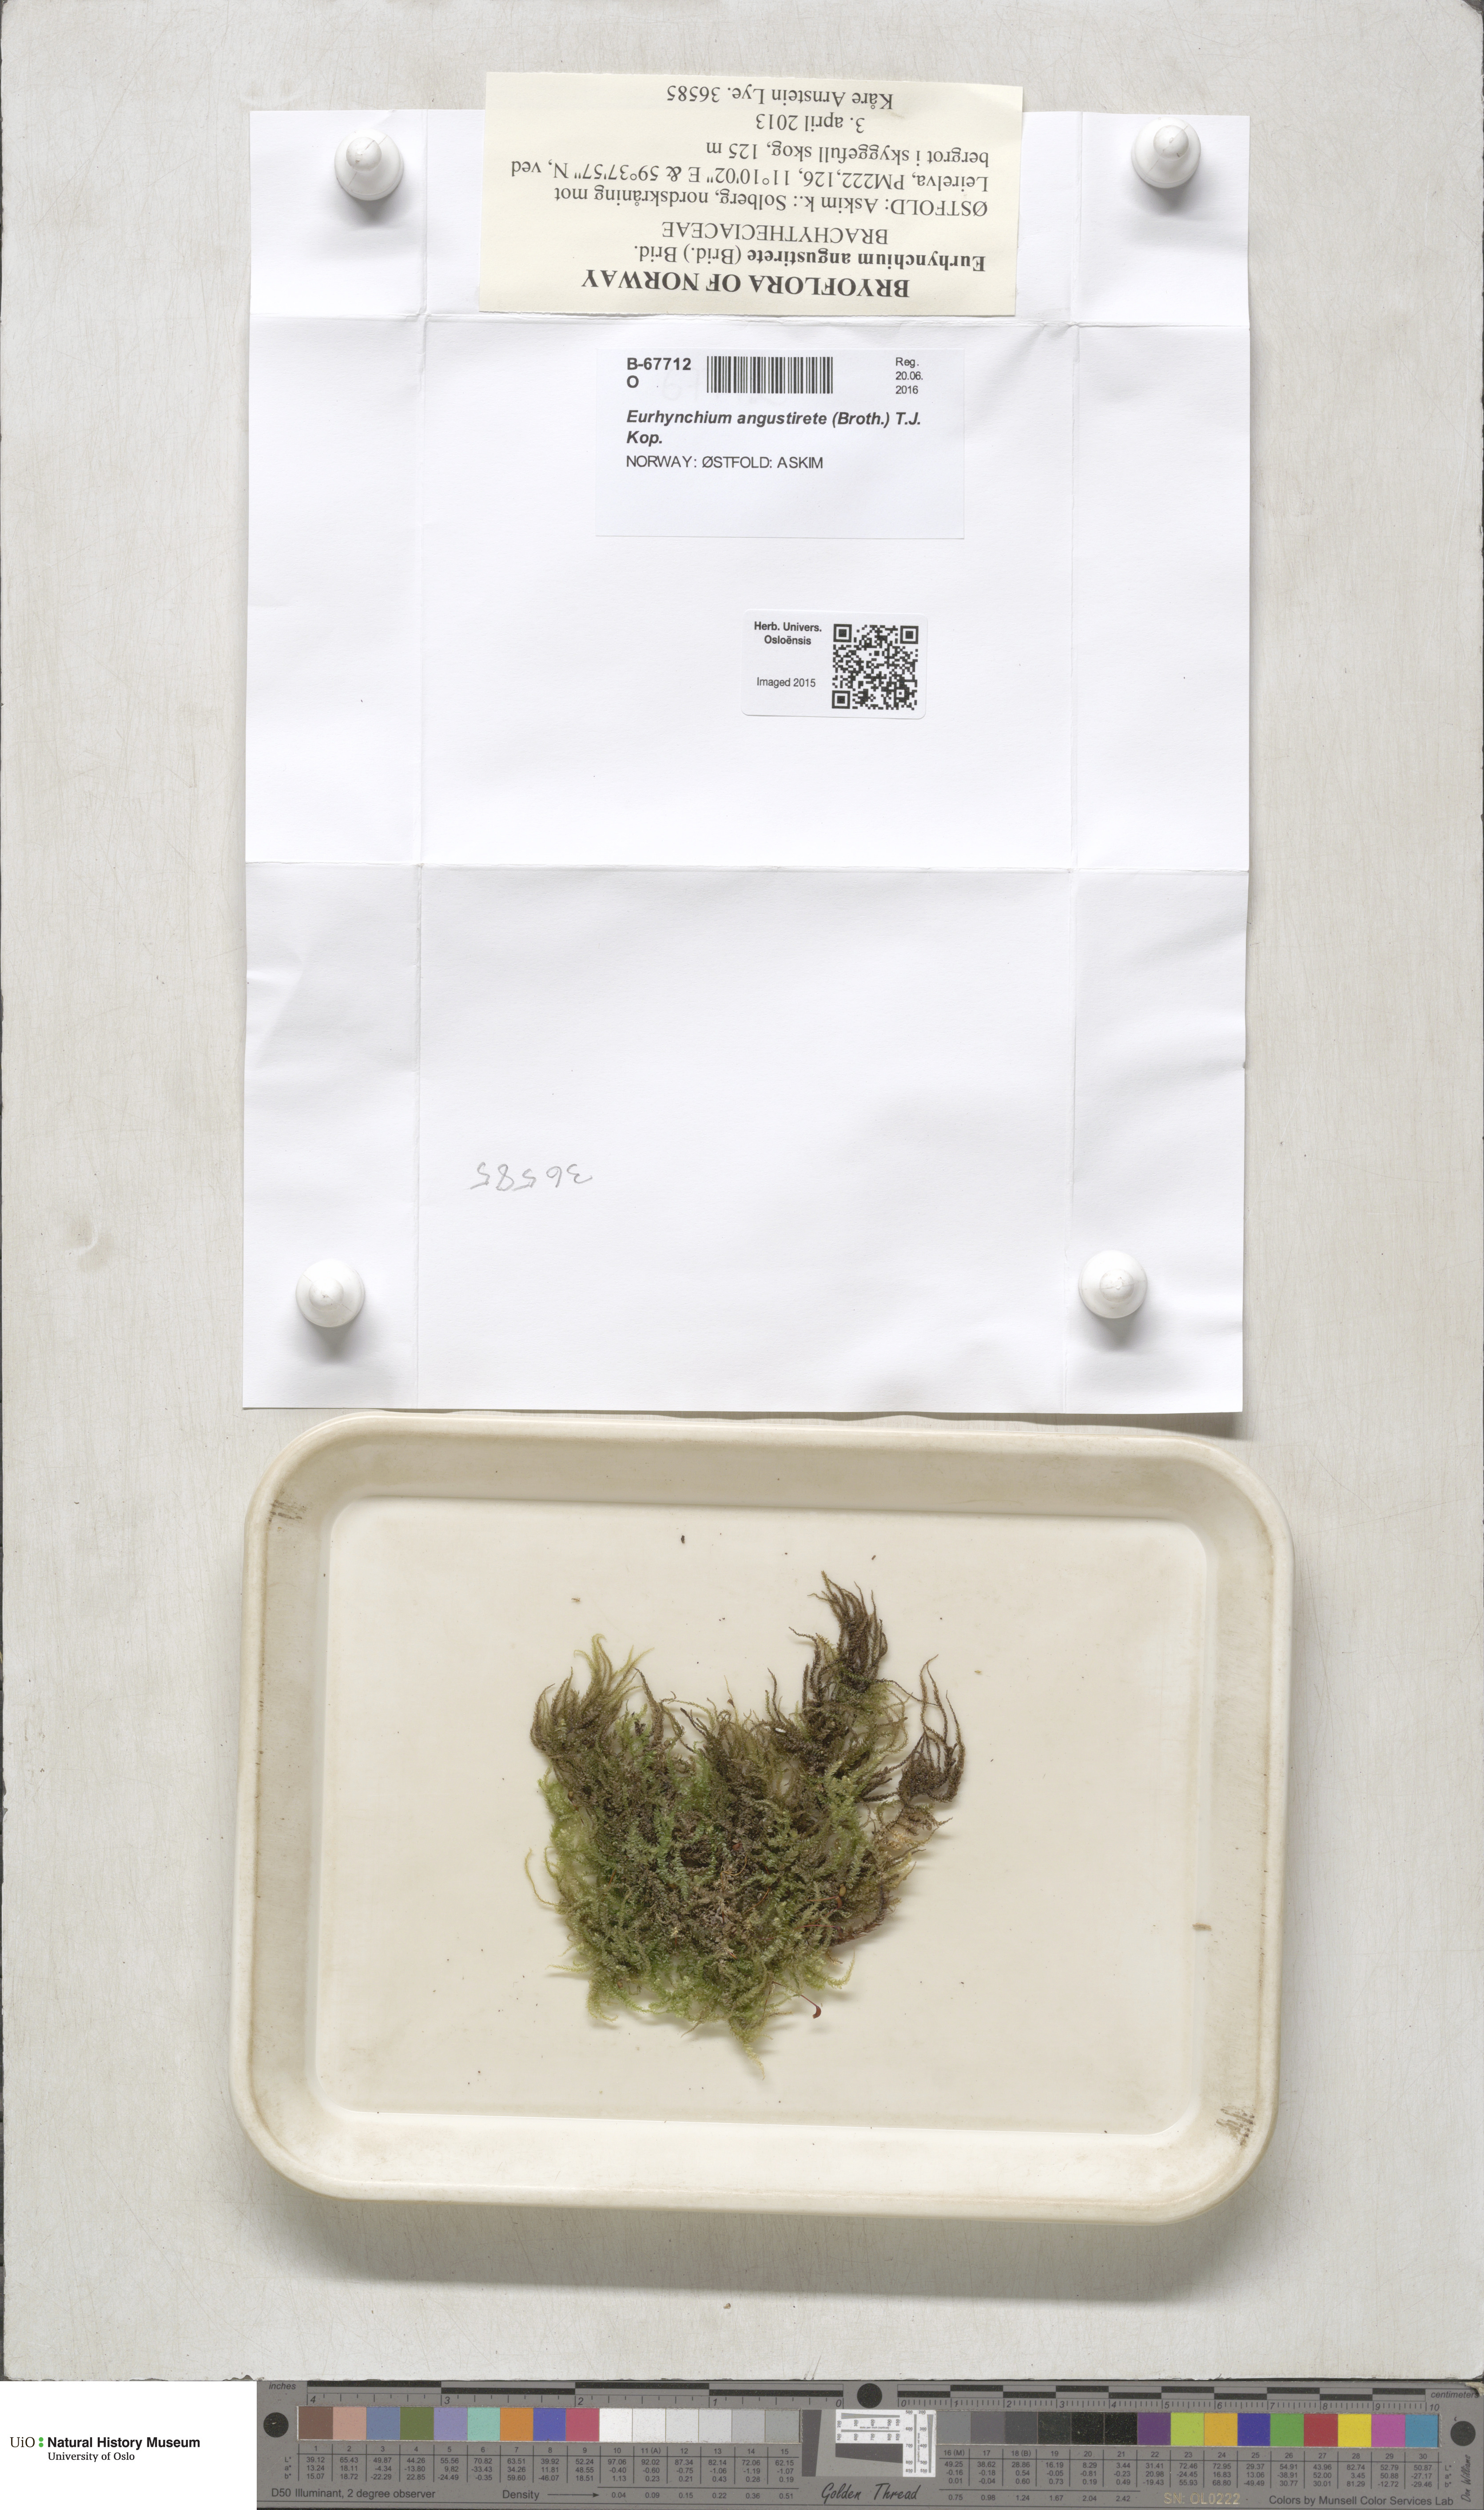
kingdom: Plantae
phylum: Bryophyta
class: Bryopsida
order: Hypnales
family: Brachytheciaceae
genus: Eurhynchium
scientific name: Eurhynchium angustirete
